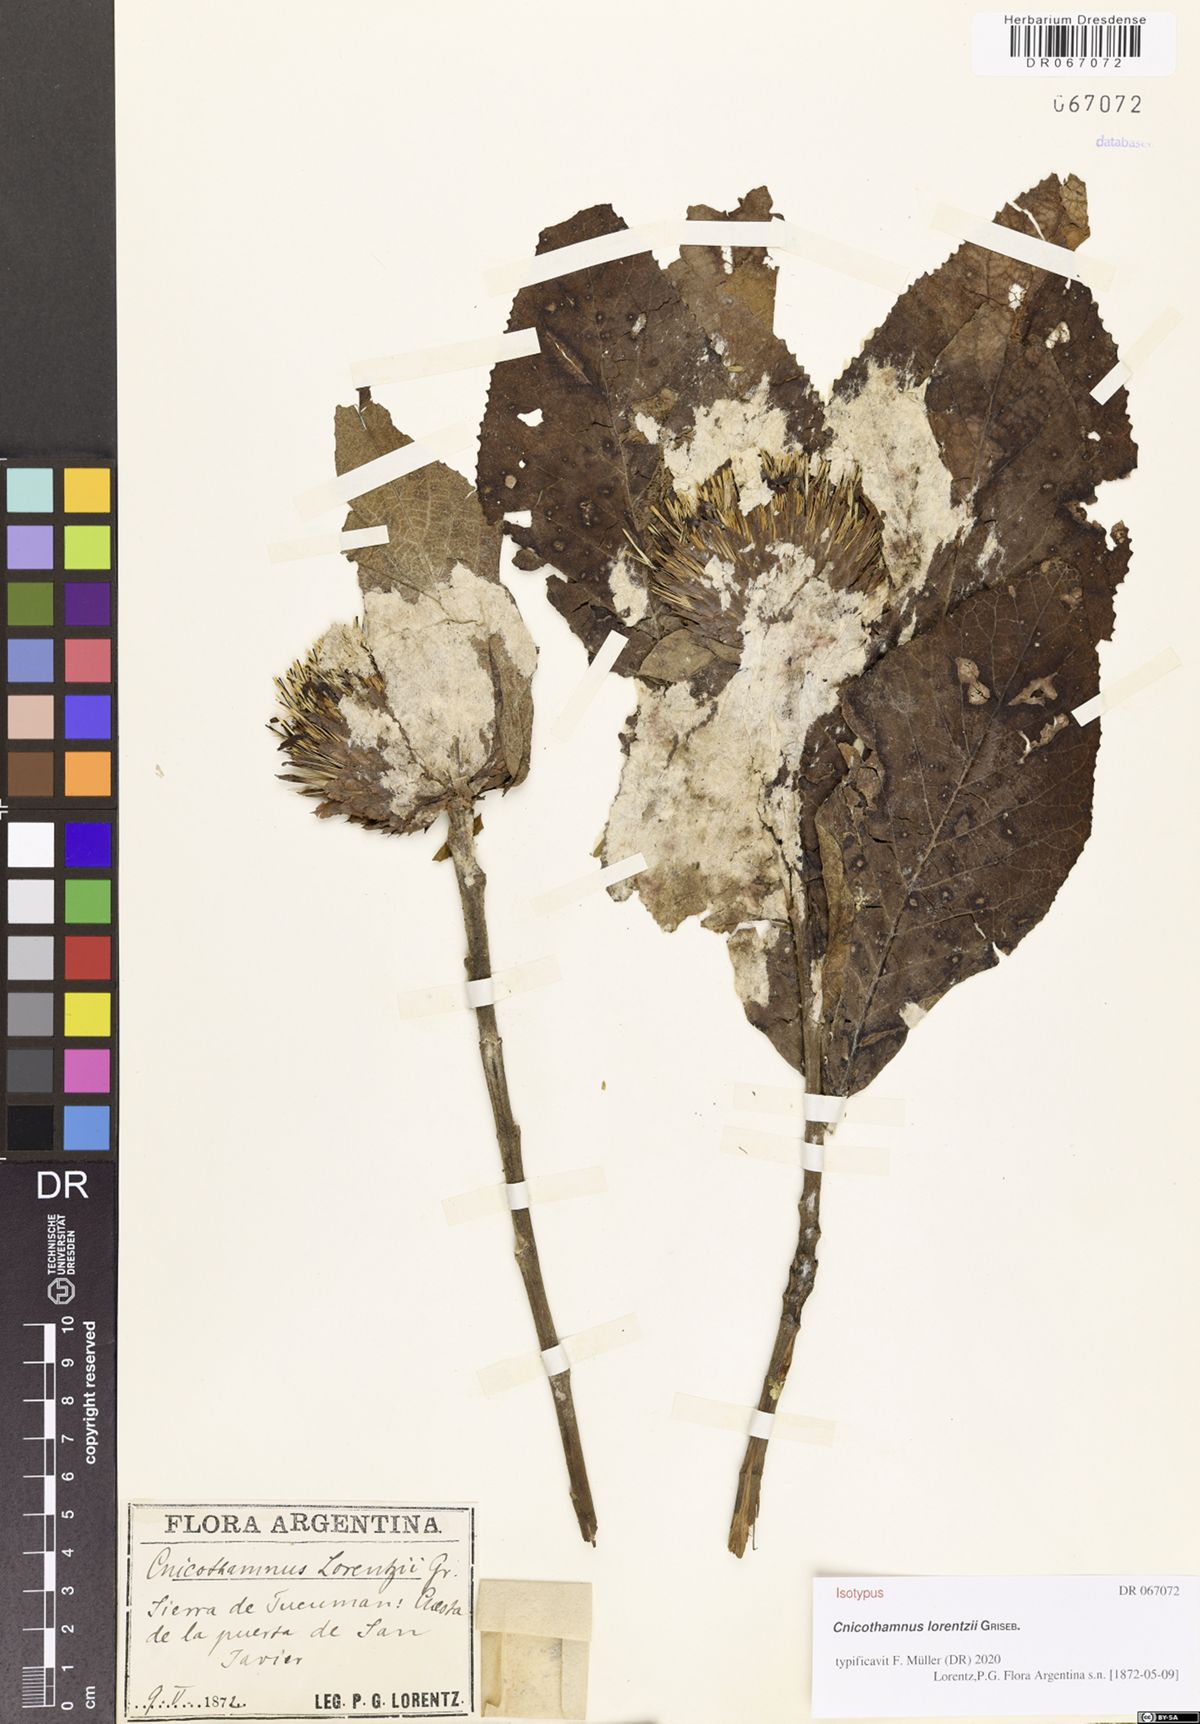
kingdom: Plantae
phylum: Tracheophyta
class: Magnoliopsida
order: Asterales
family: Asteraceae
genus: Cnicothamnus
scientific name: Cnicothamnus lorentzii
